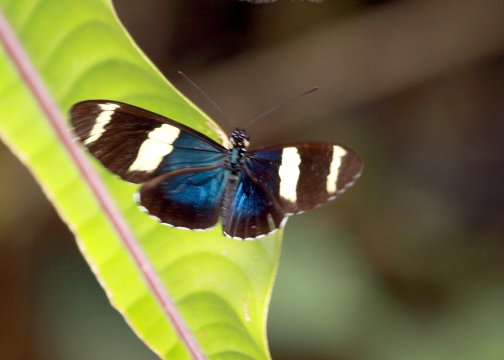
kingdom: Animalia
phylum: Arthropoda
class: Insecta
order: Lepidoptera
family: Nymphalidae
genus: Heliconius
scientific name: Heliconius sara
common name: Sara Longwing
